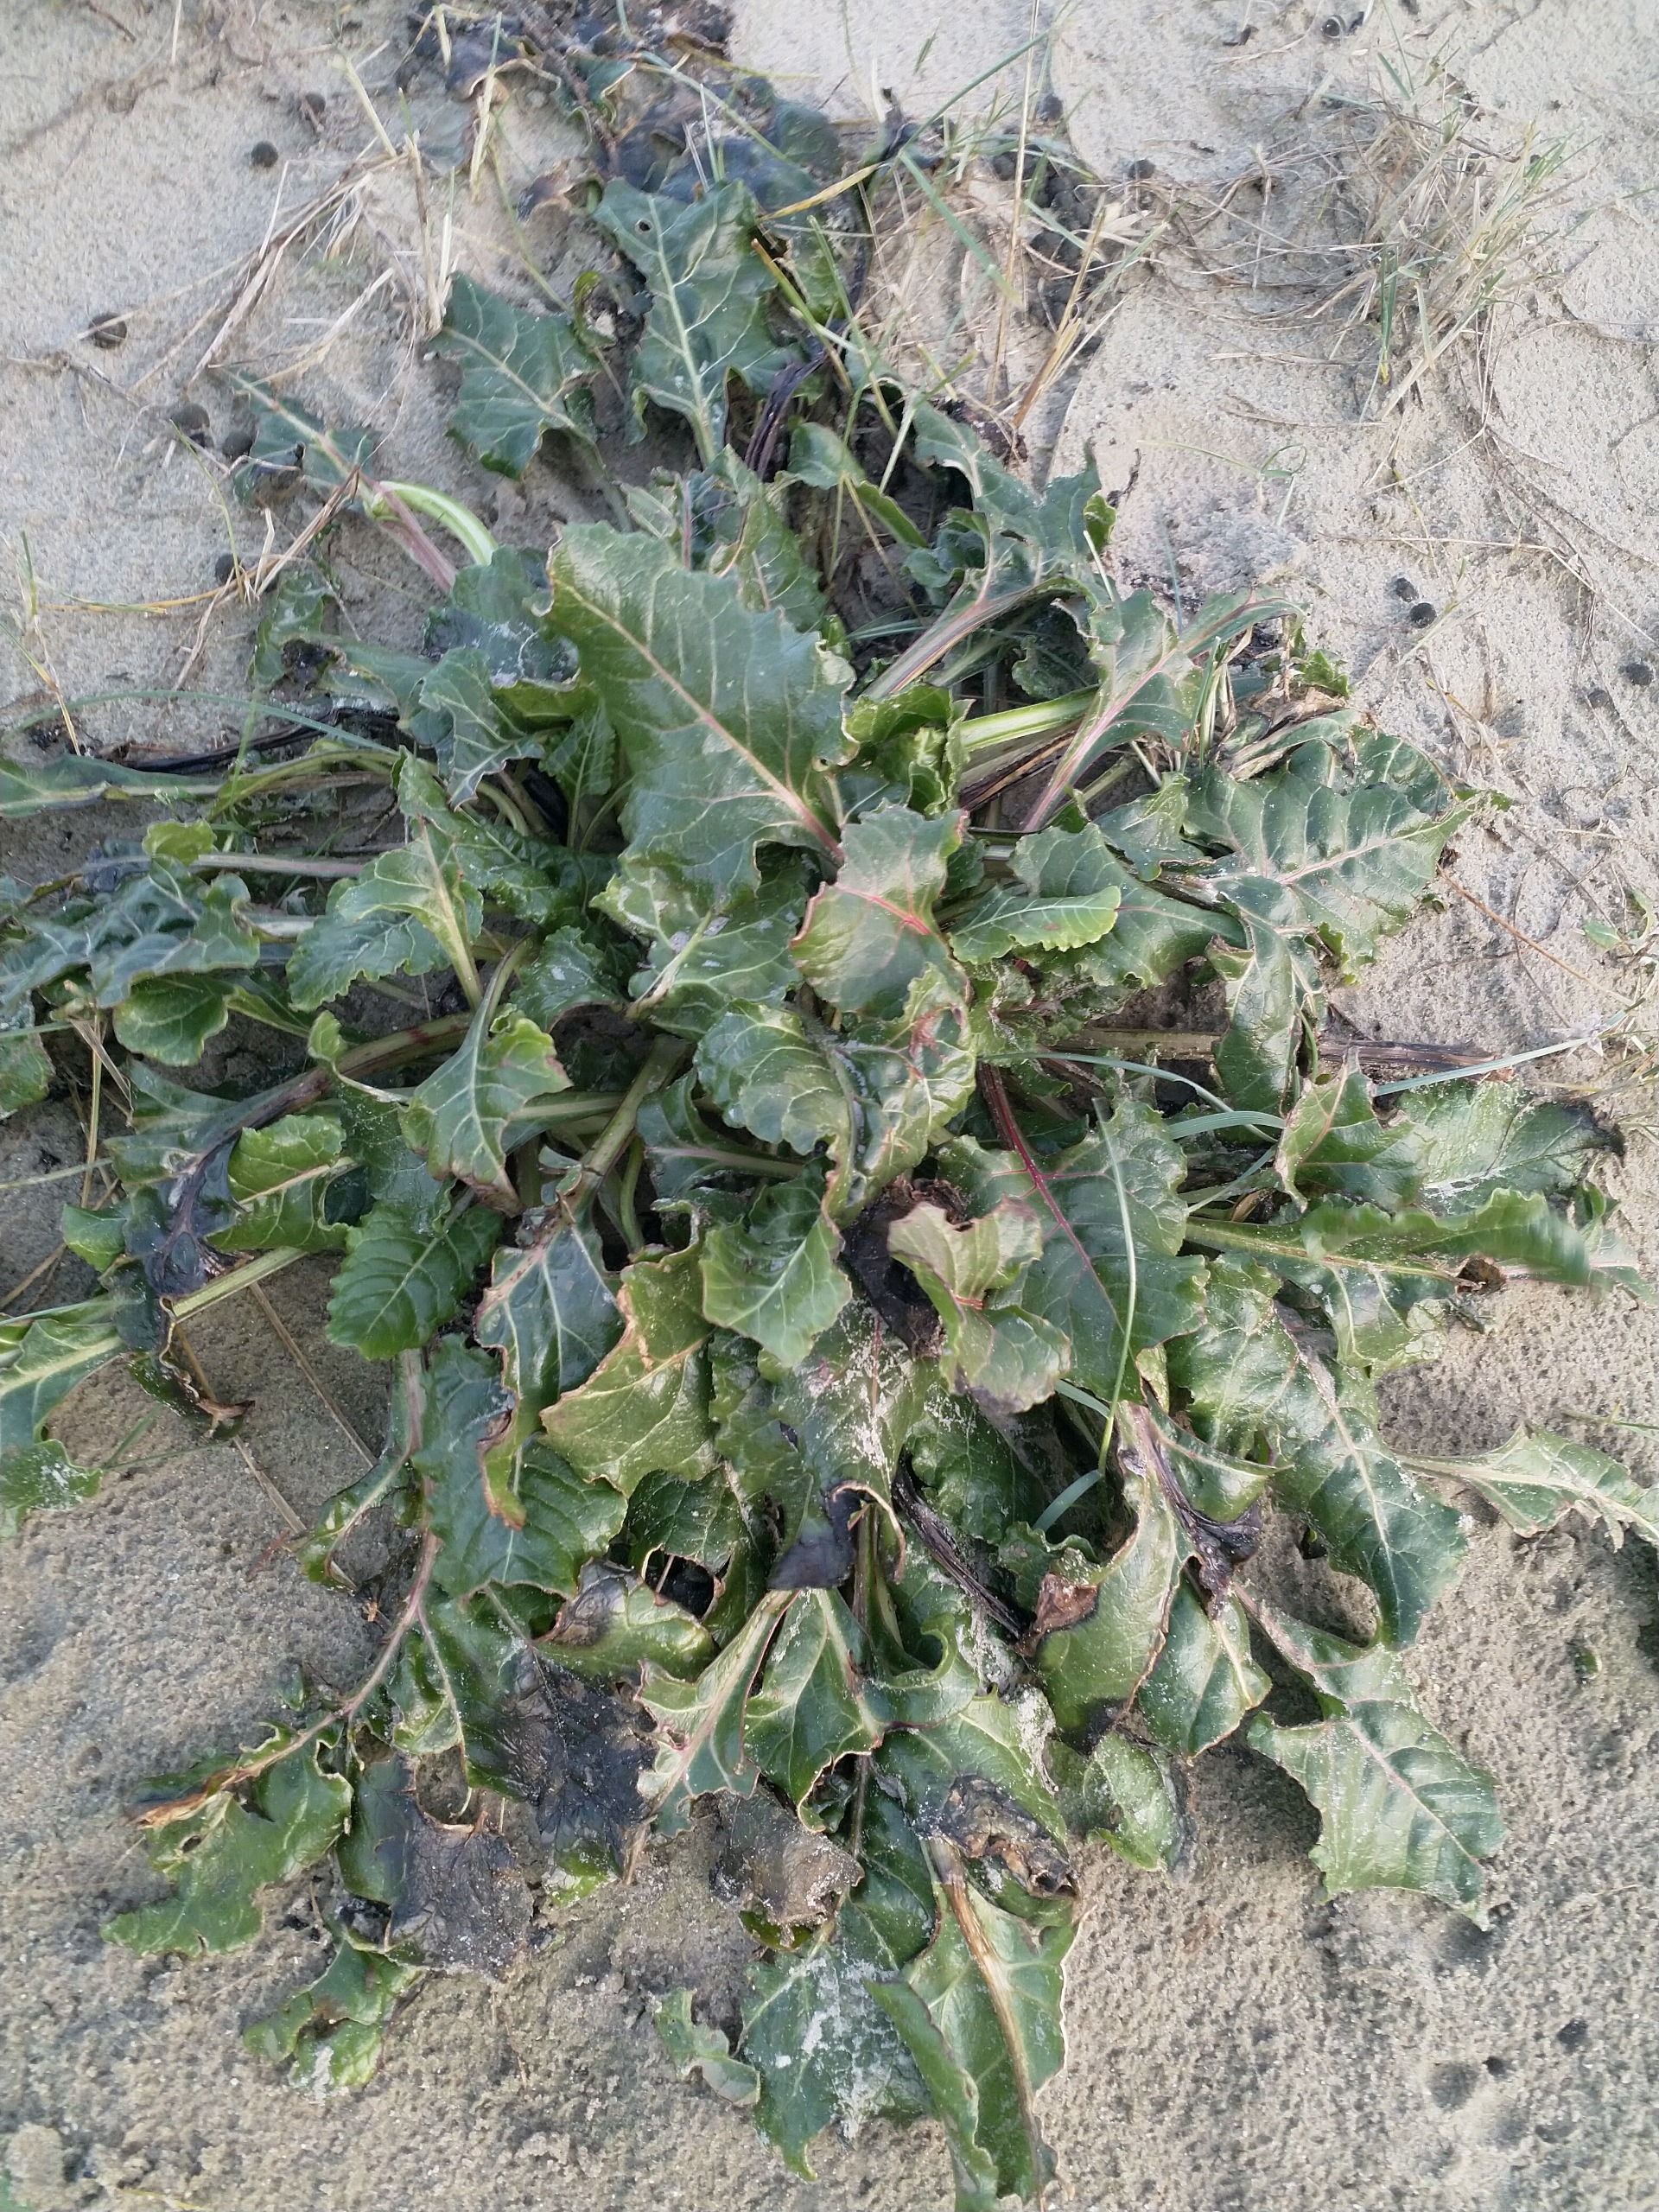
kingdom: Plantae
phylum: Tracheophyta
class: Magnoliopsida
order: Caryophyllales
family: Amaranthaceae
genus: Beta
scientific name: Beta maritima
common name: Strand-bede
